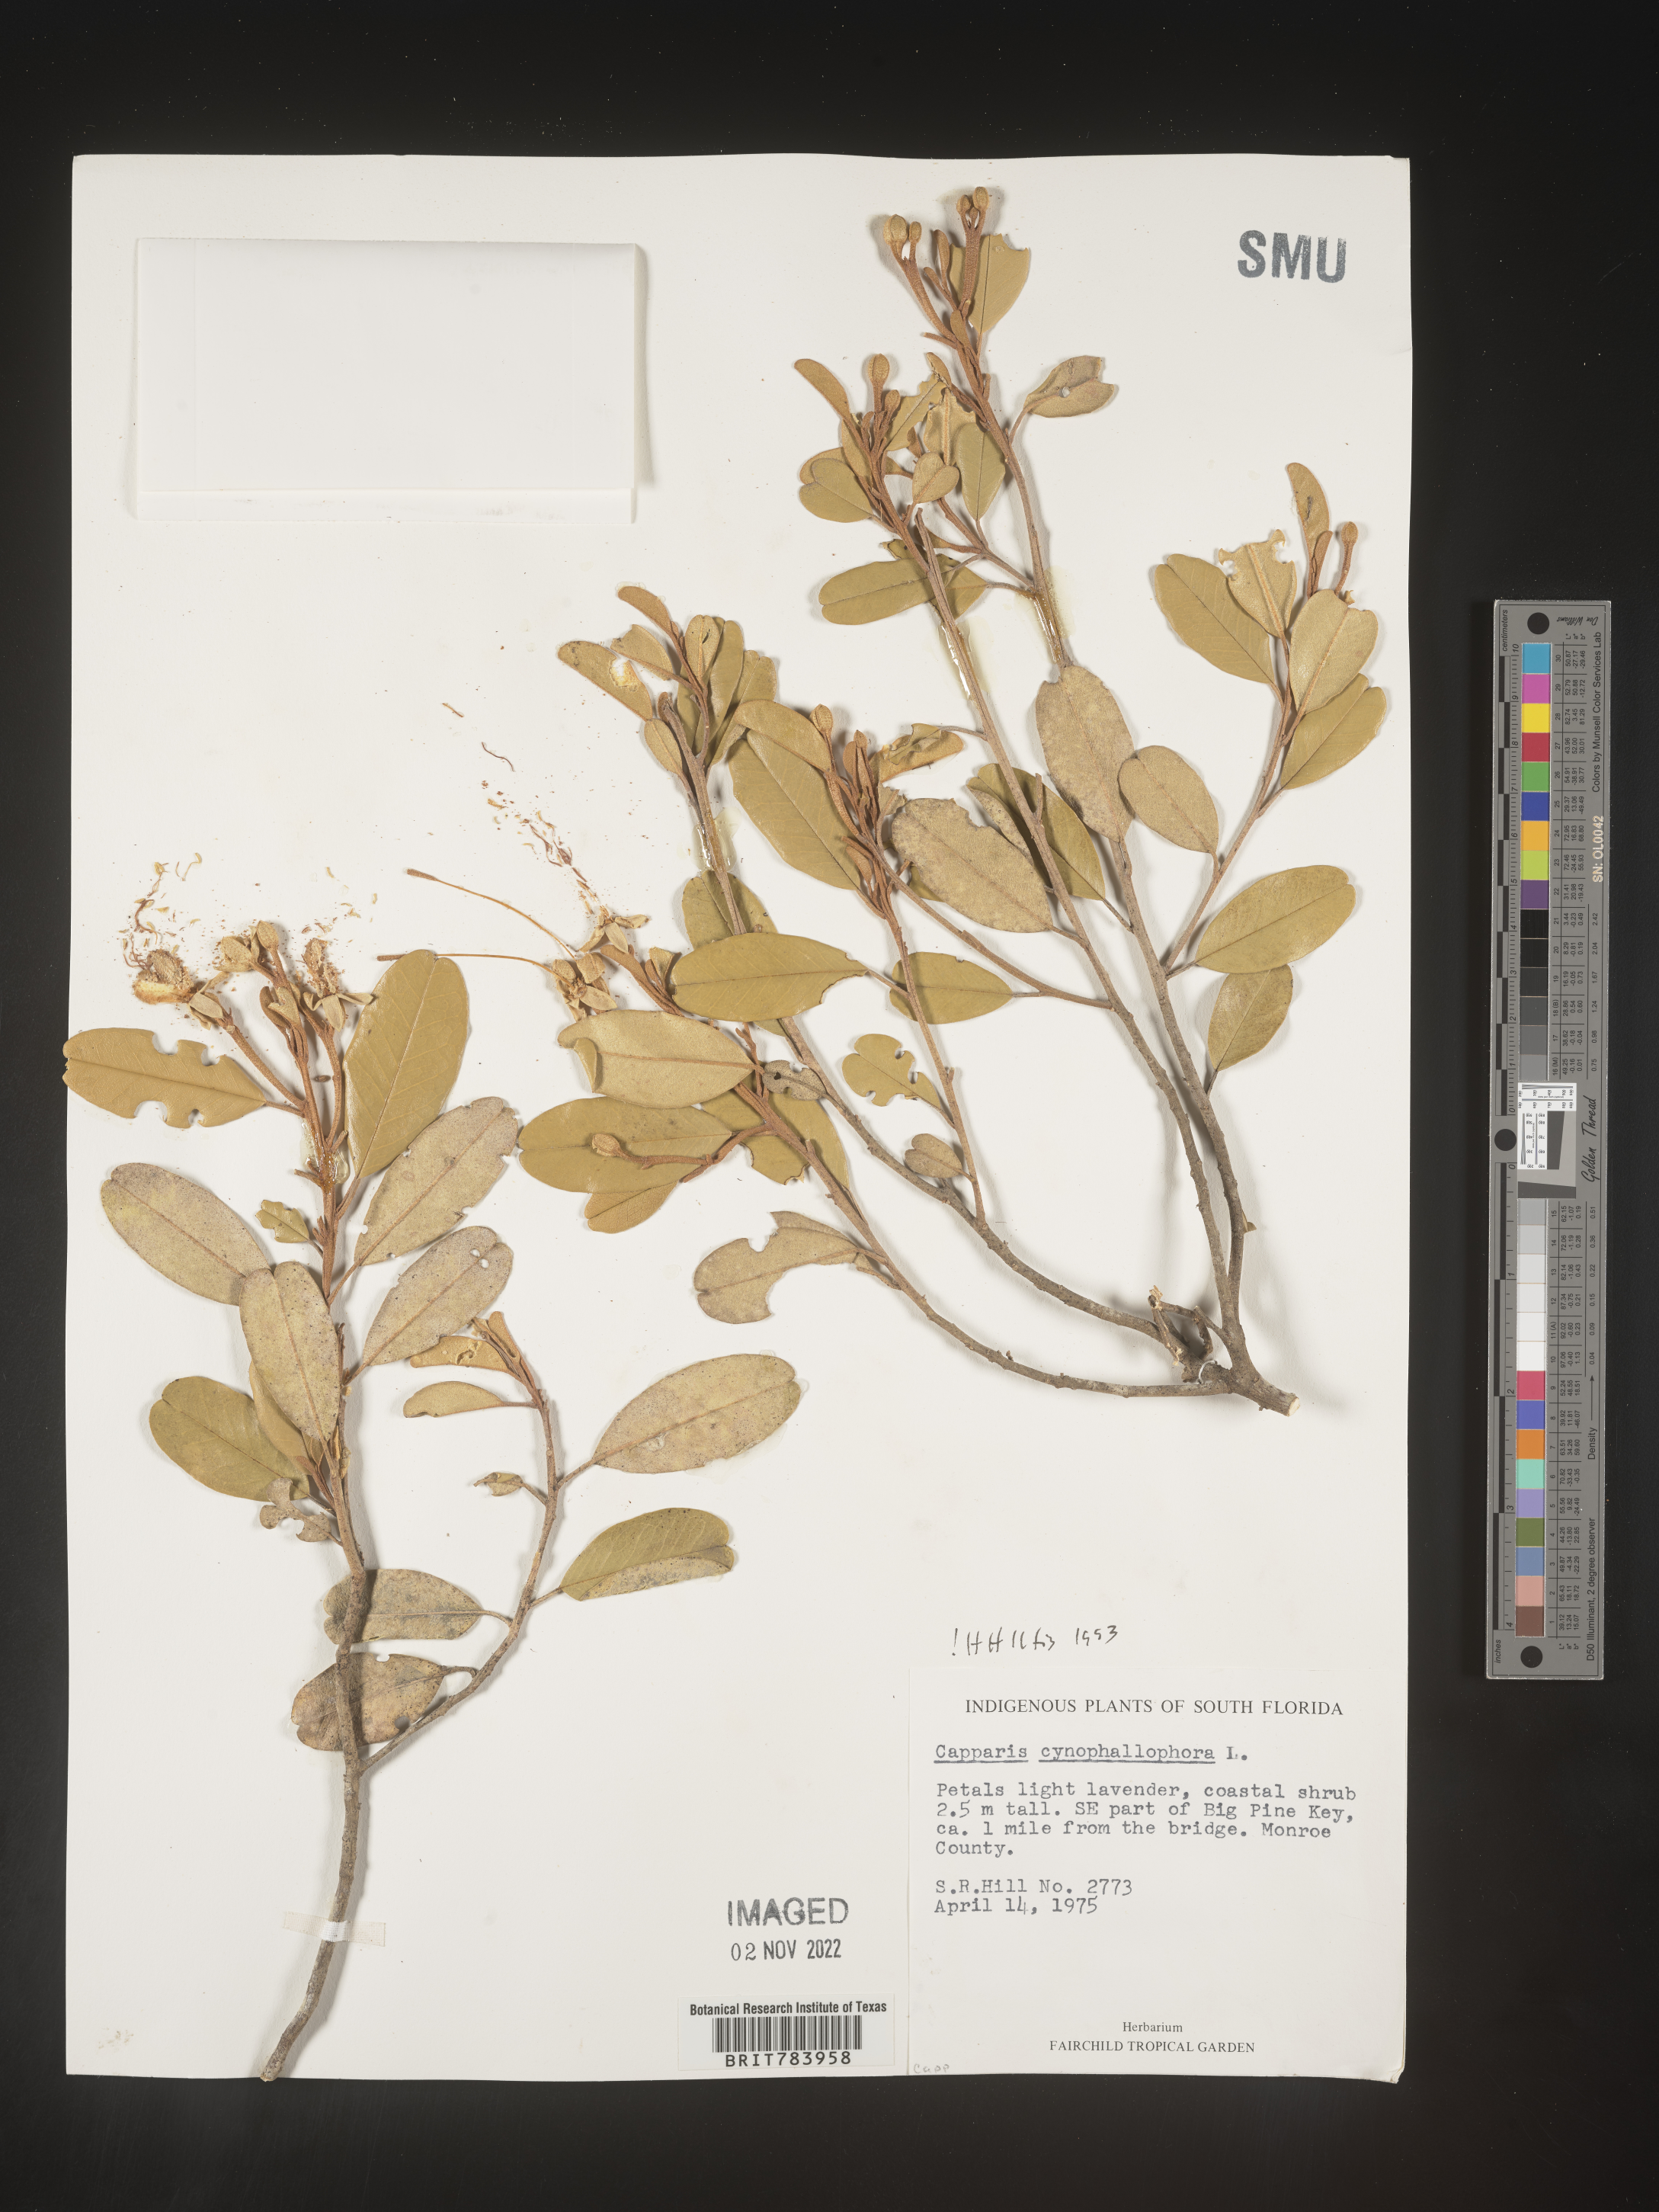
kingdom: Plantae
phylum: Tracheophyta
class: Magnoliopsida
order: Brassicales
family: Capparaceae
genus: Capparis
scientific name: Capparis
